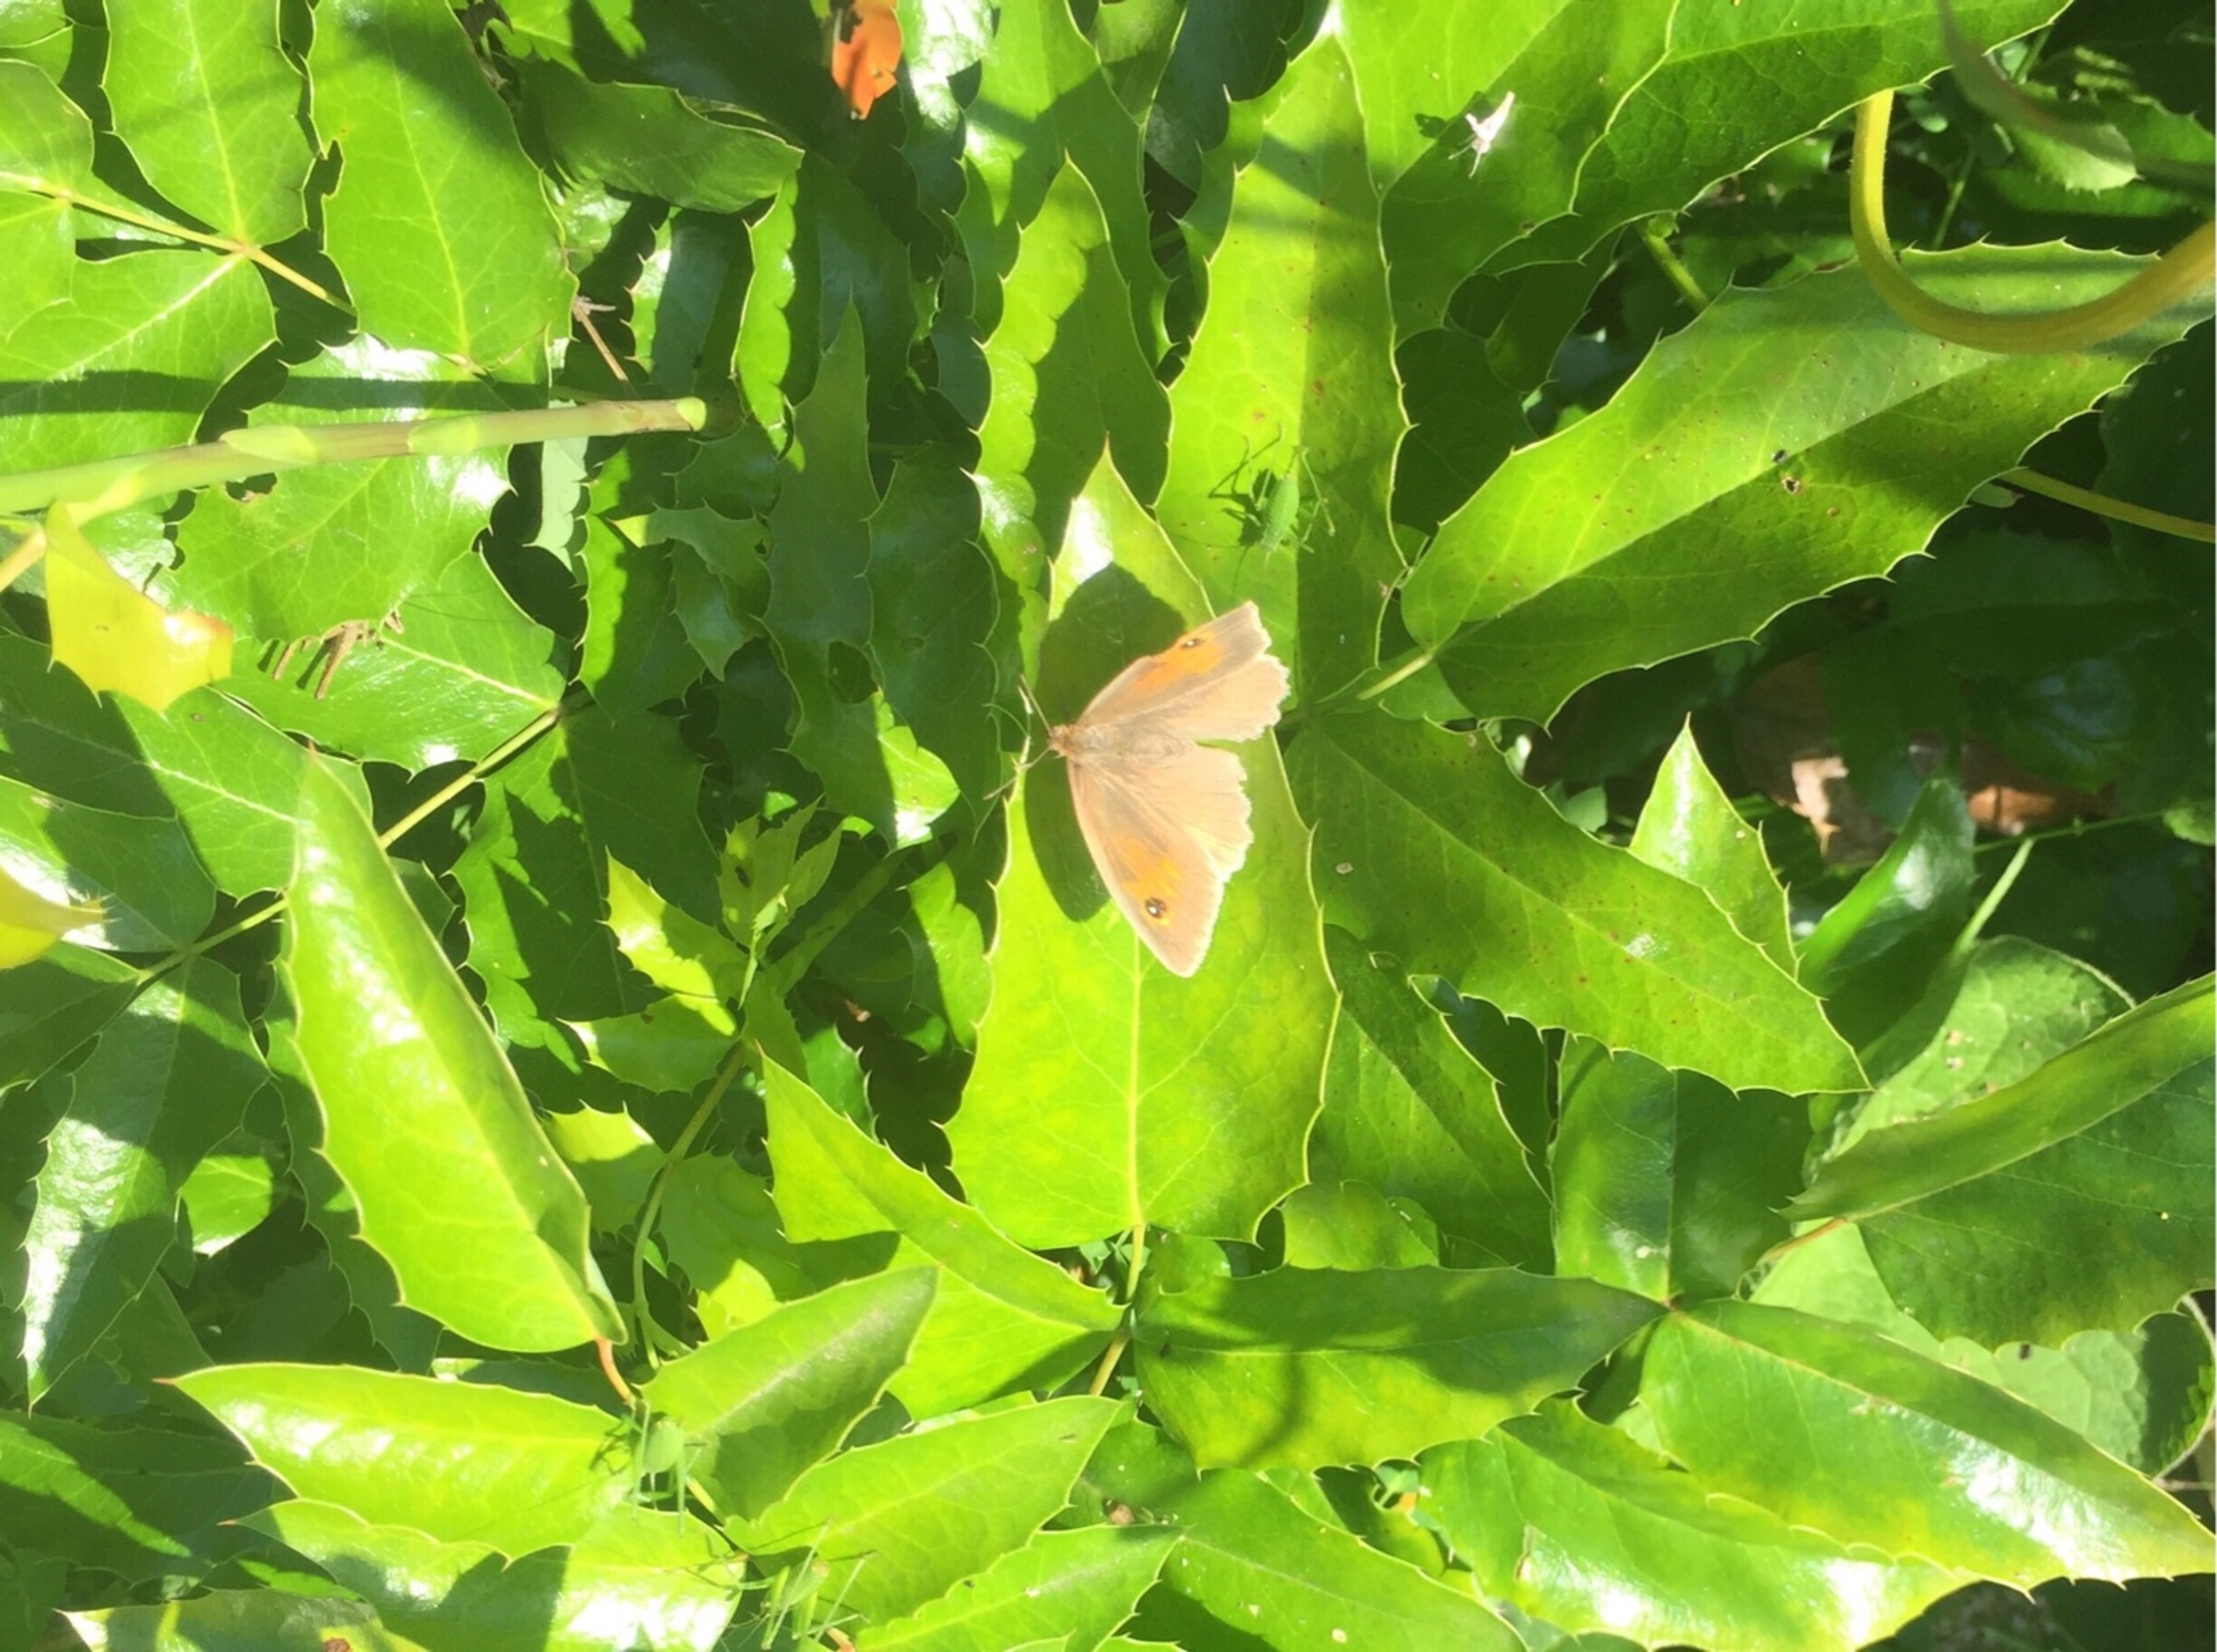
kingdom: Animalia
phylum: Arthropoda
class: Insecta
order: Lepidoptera
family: Nymphalidae
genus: Maniola
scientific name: Maniola jurtina
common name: Græsrandøje
